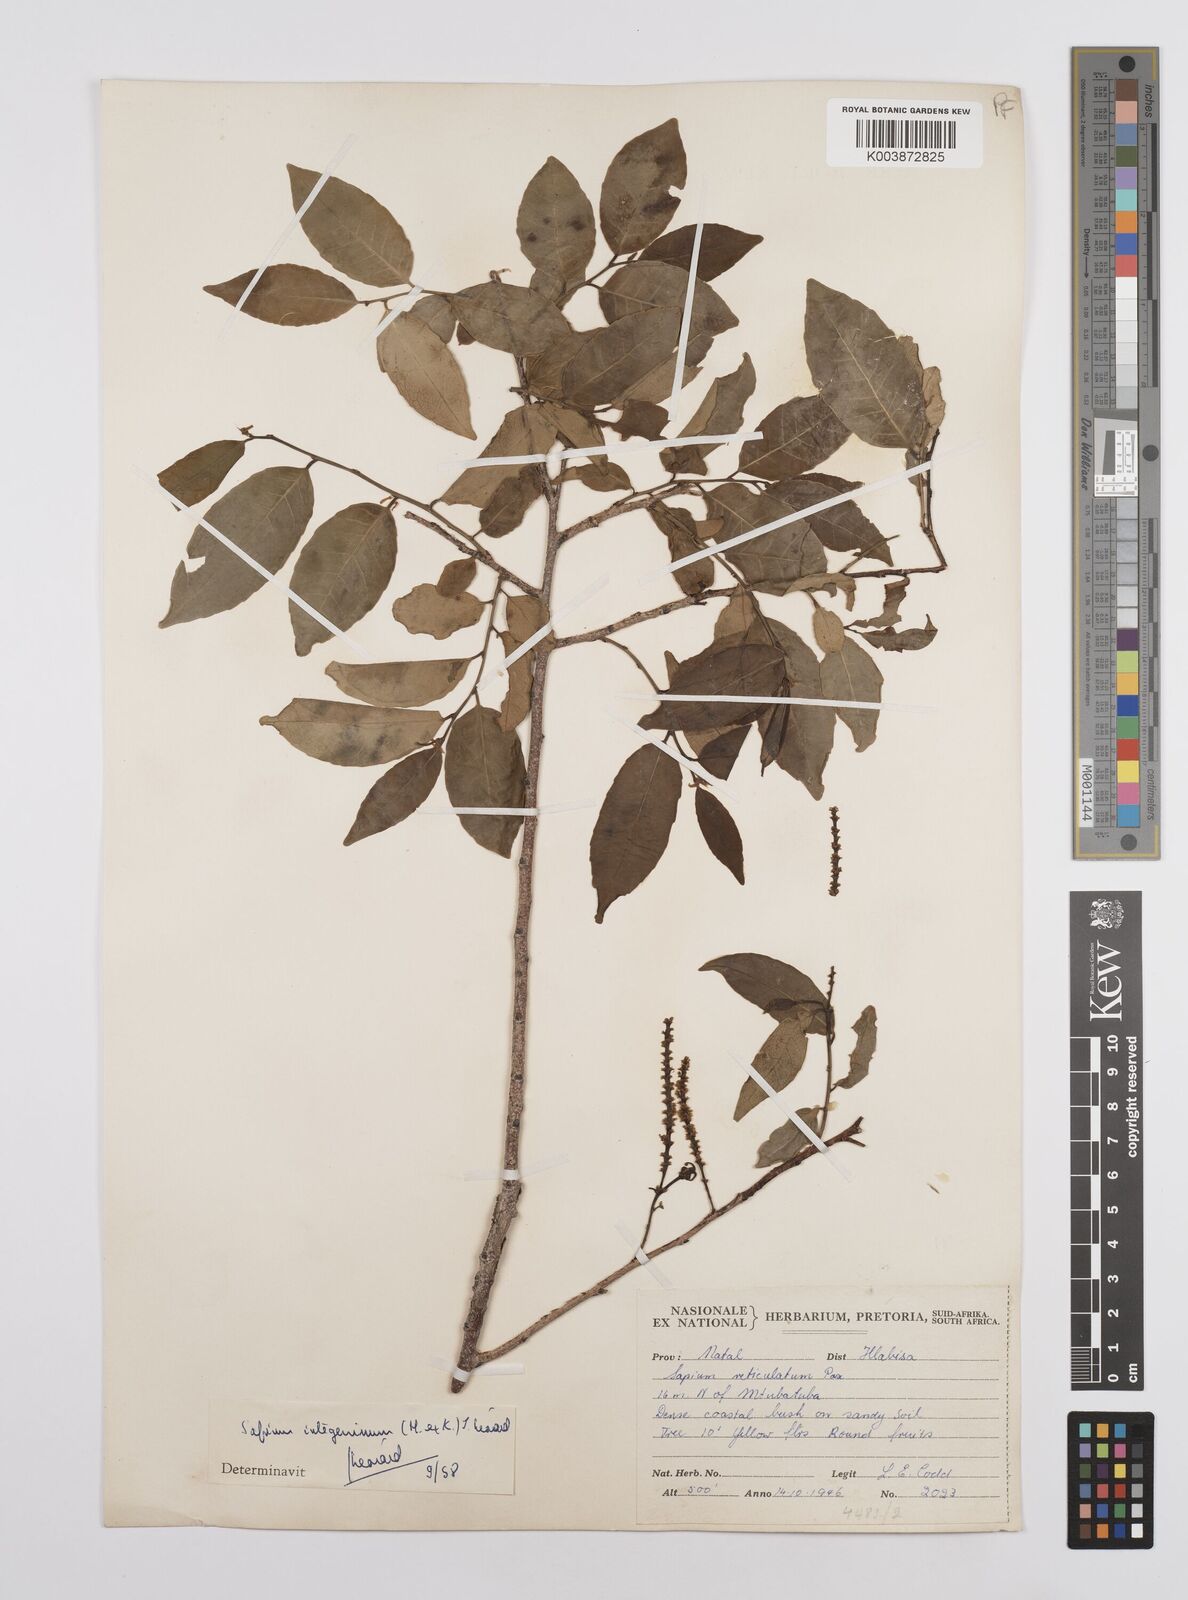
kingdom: Plantae
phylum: Tracheophyta
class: Magnoliopsida
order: Malpighiales
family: Euphorbiaceae
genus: Sclerocroton
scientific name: Sclerocroton integerrimus
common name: Duiker berry
